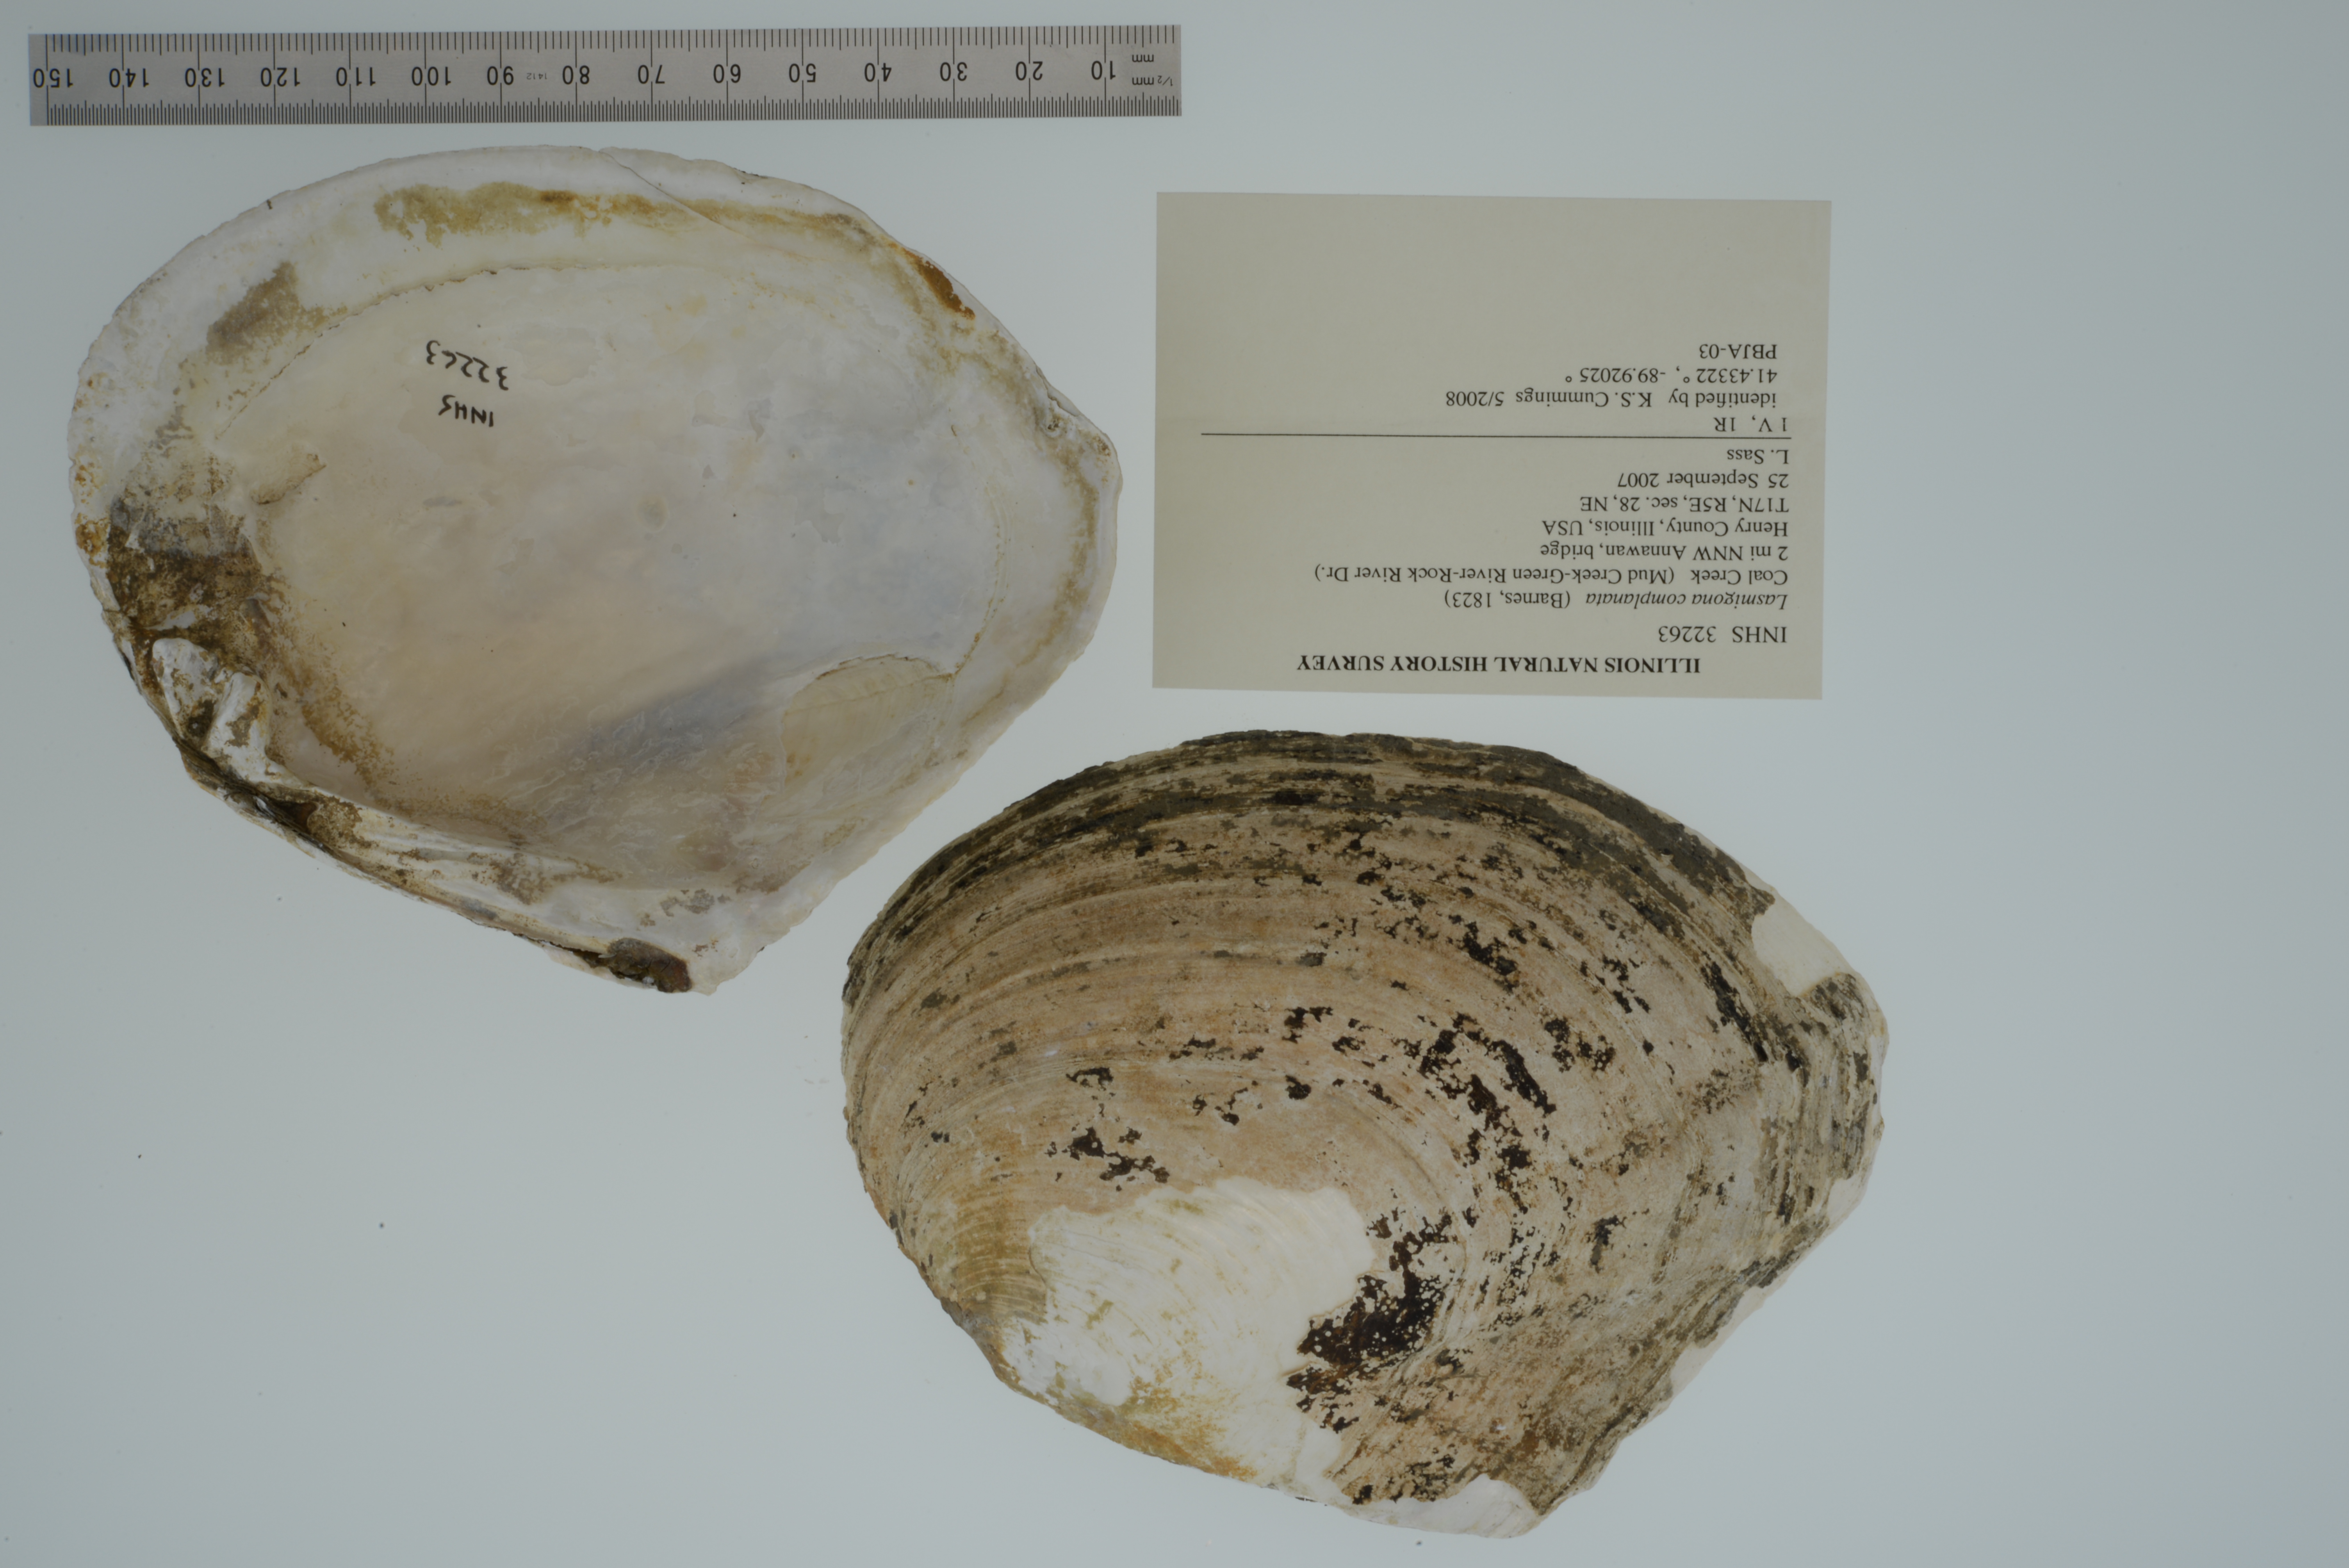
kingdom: Animalia
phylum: Mollusca
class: Bivalvia
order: Unionida
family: Unionidae
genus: Lasmigona
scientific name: Lasmigona complanata
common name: White heelsplitter
